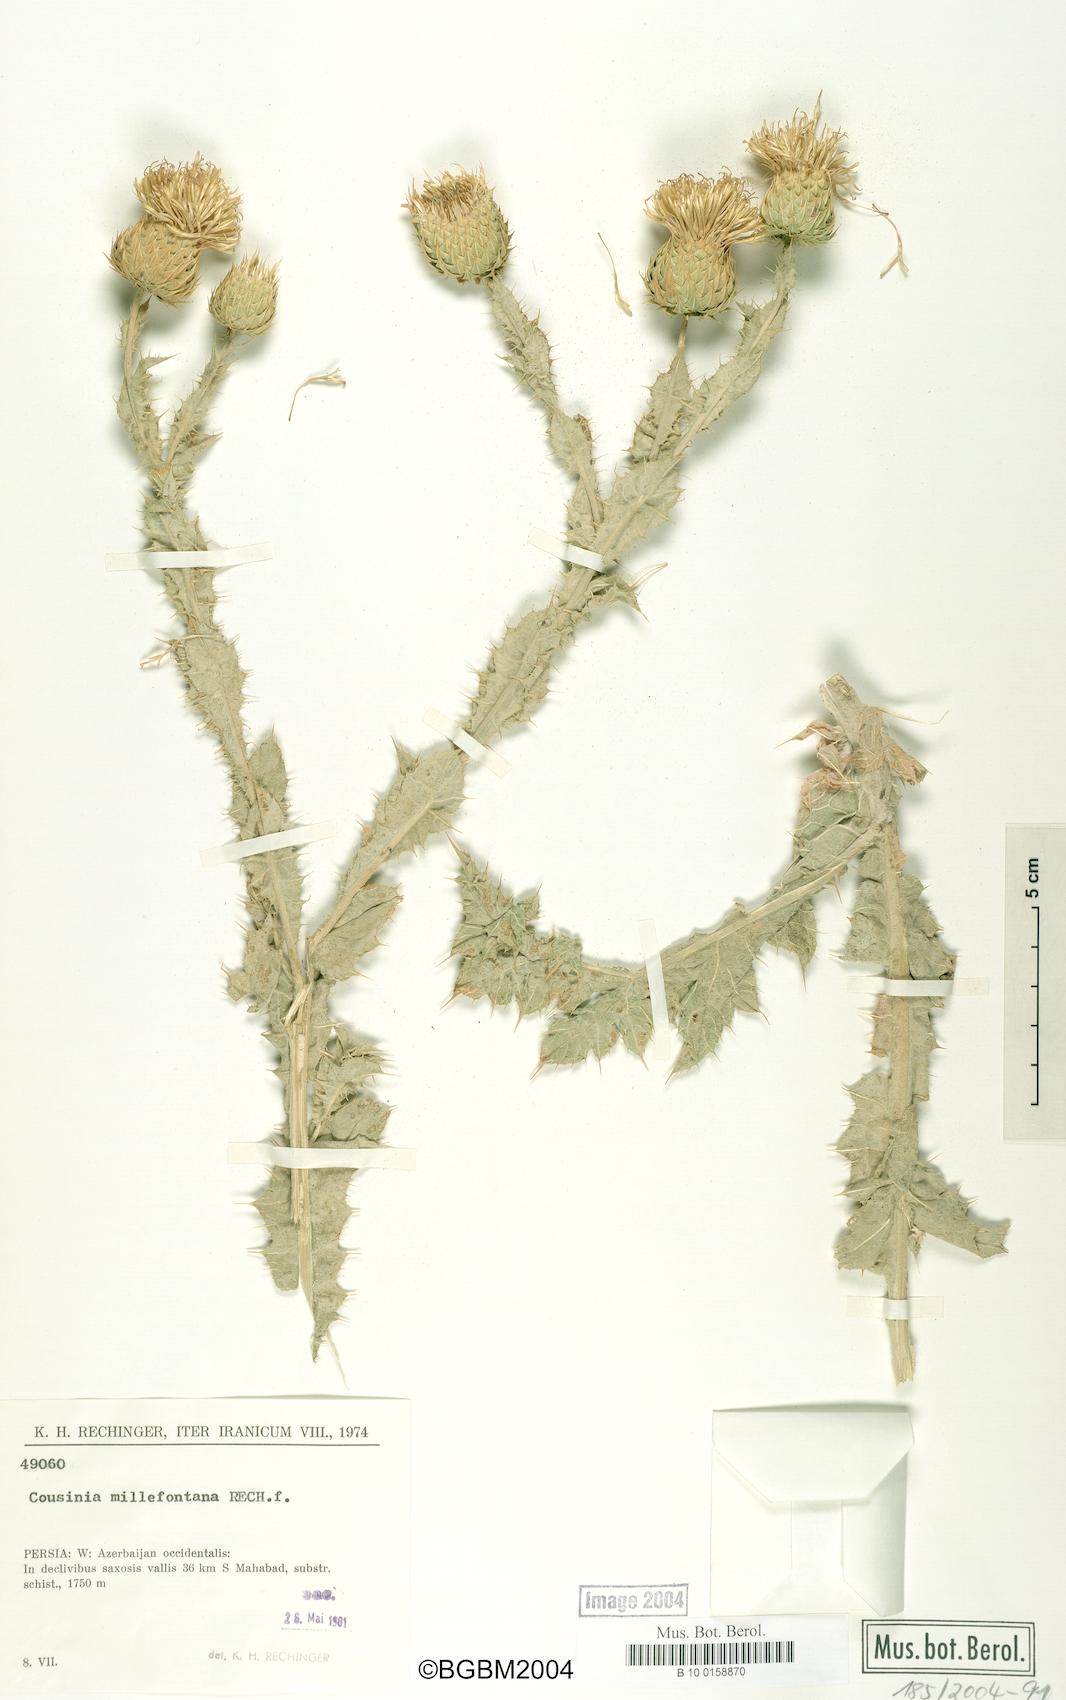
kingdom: Plantae
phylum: Tracheophyta
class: Magnoliopsida
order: Asterales
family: Asteraceae
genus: Cousinia
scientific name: Cousinia millefontana
